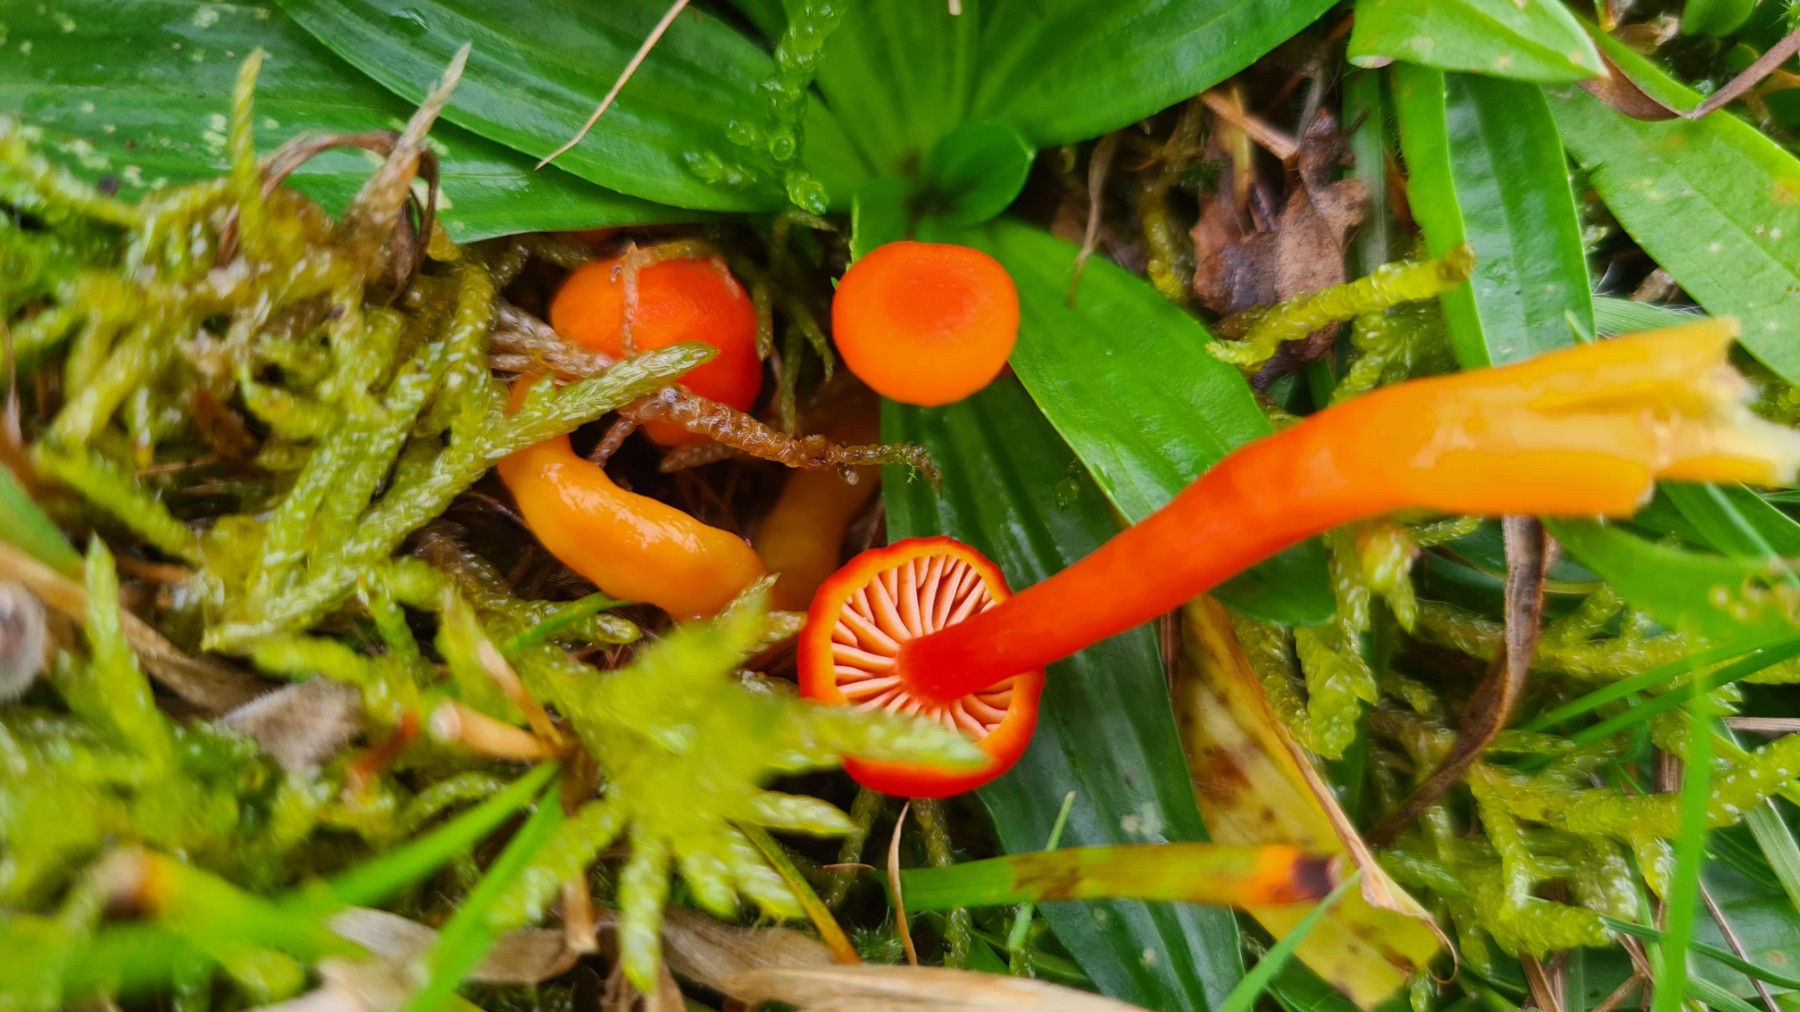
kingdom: Fungi
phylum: Basidiomycota
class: Agaricomycetes
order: Agaricales
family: Hygrophoraceae
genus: Hygrocybe
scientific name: Hygrocybe miniata
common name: mønje-vokshat
